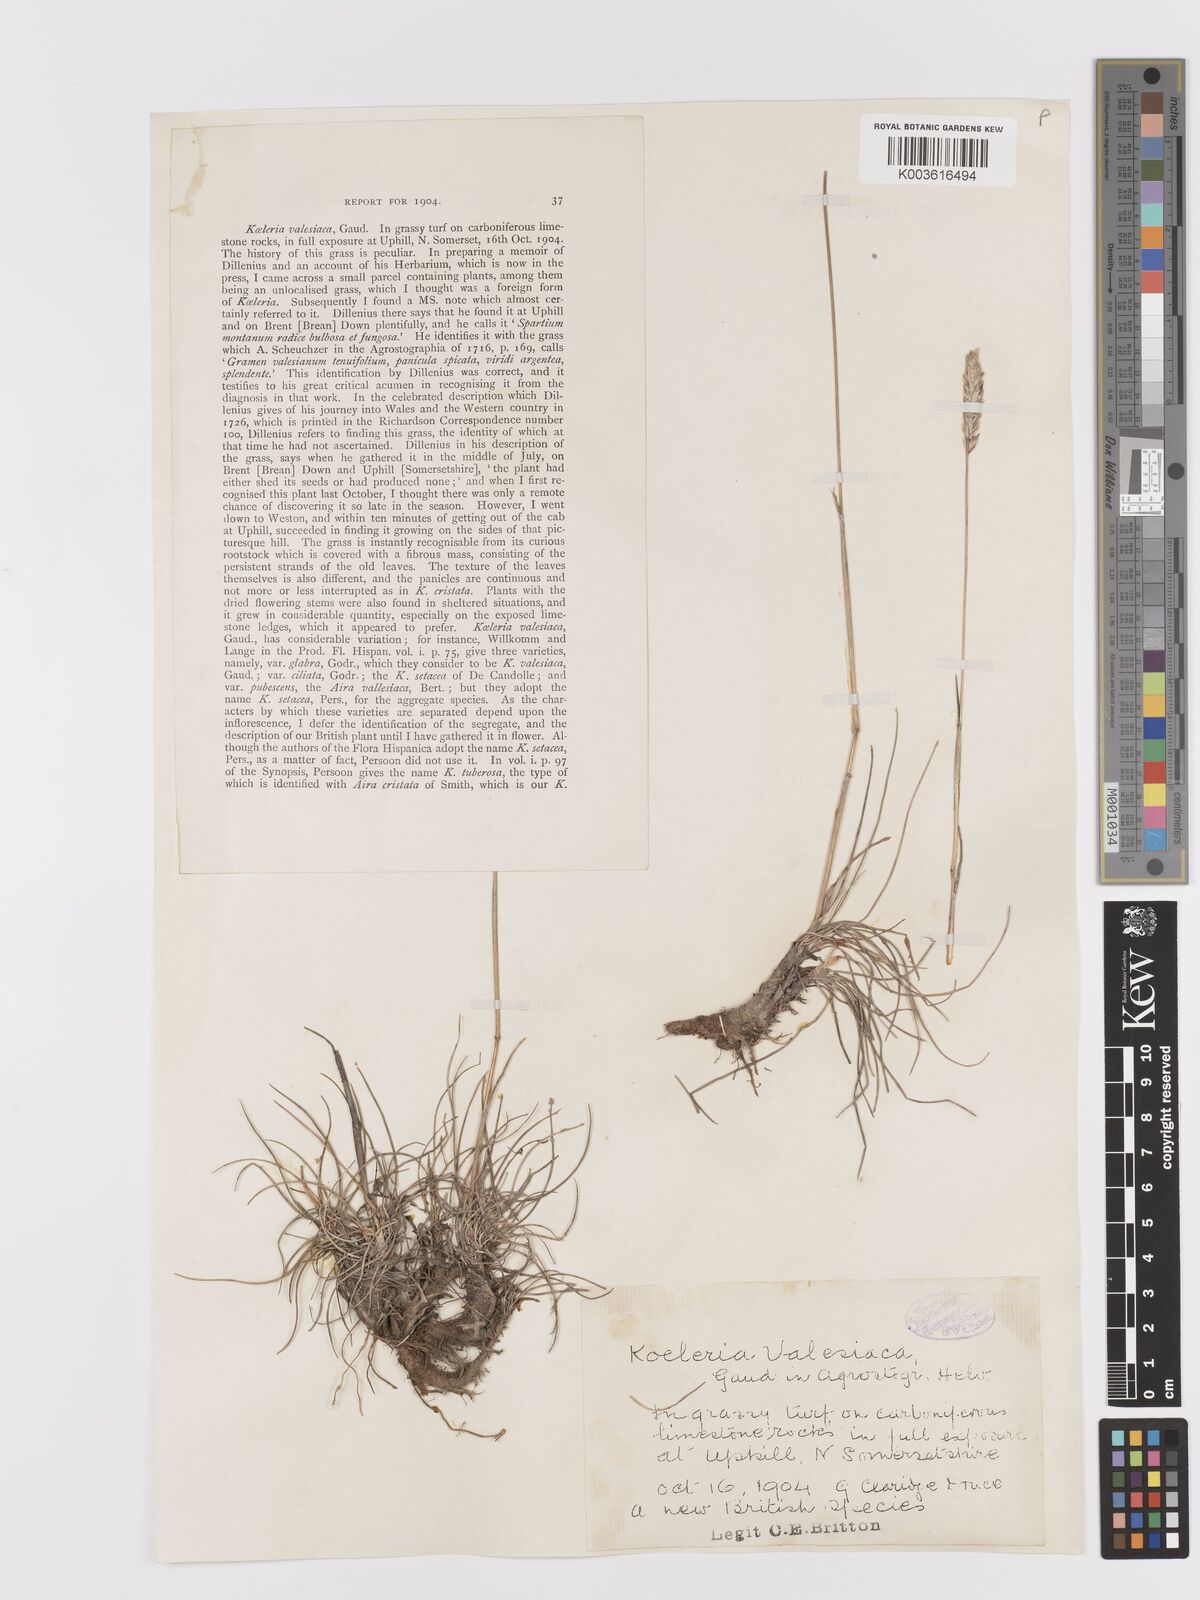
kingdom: Plantae
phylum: Tracheophyta
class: Liliopsida
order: Poales
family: Poaceae
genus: Koeleria
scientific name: Koeleria vallesiana
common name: Somerset hair-grass
